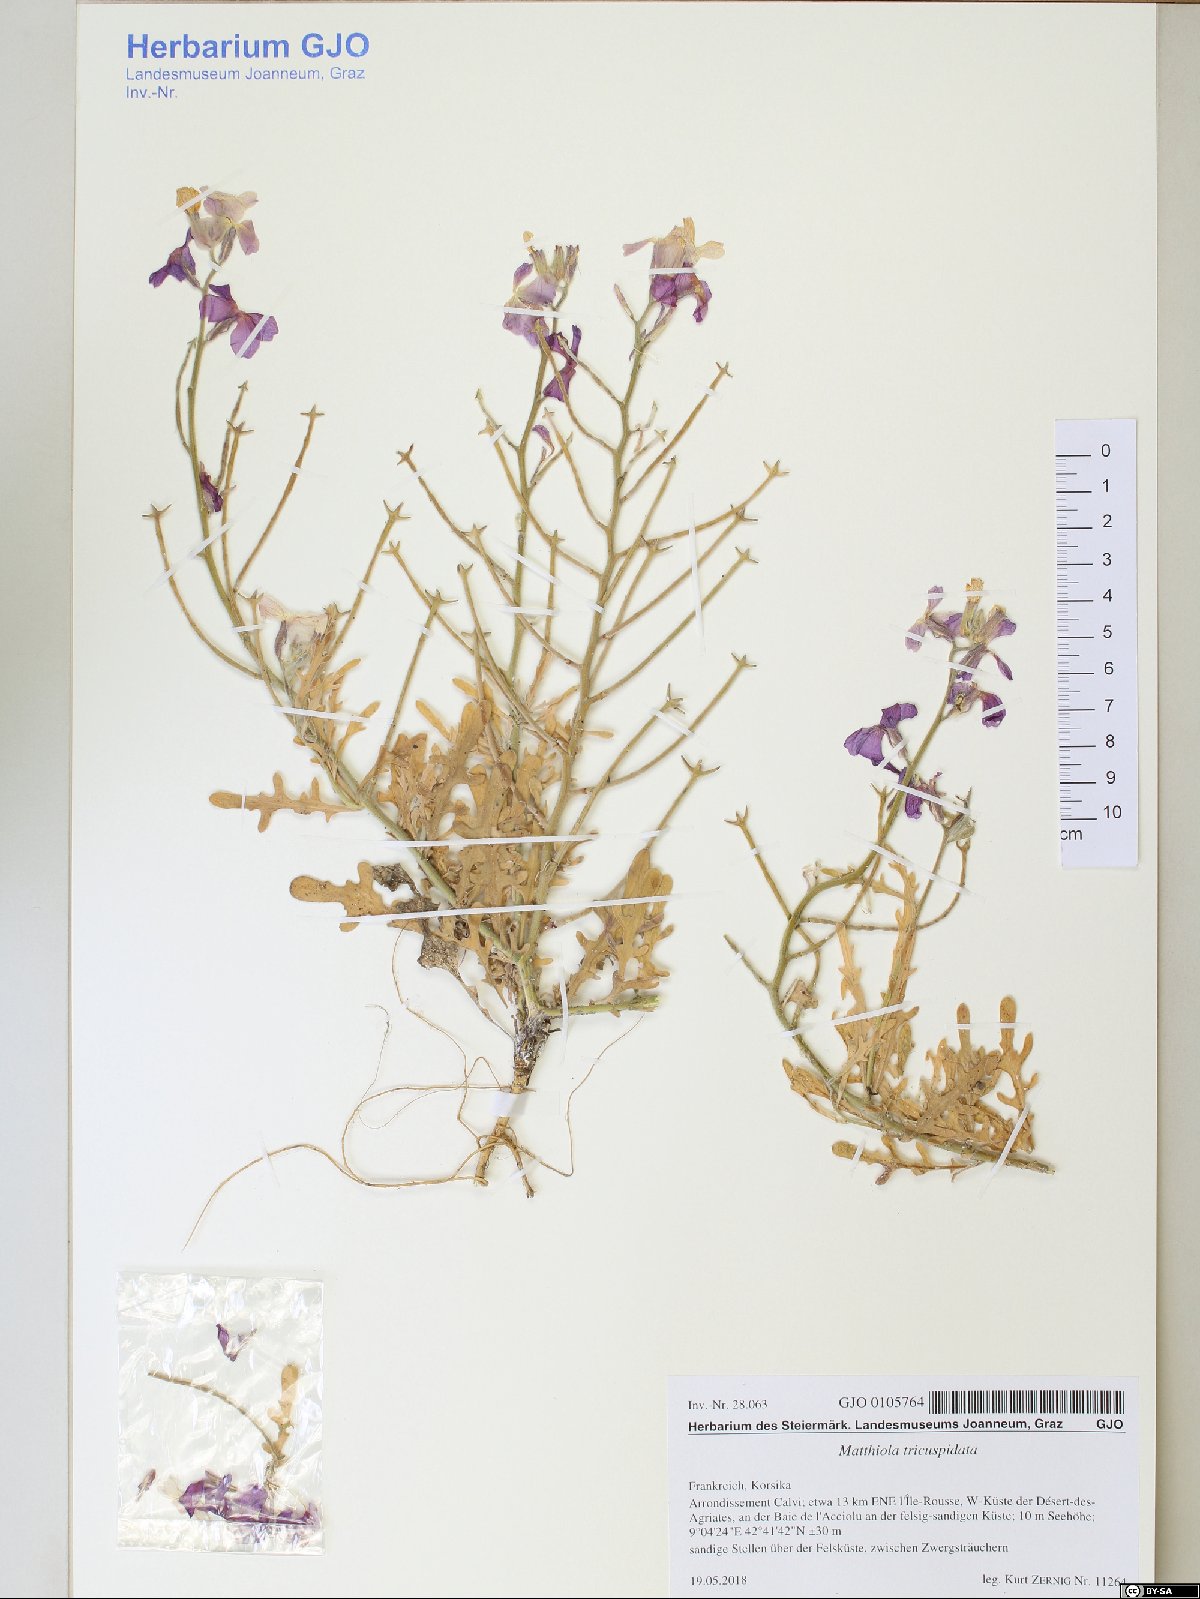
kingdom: Plantae
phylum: Tracheophyta
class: Magnoliopsida
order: Brassicales
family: Brassicaceae
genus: Matthiola
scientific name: Matthiola tricuspidata
